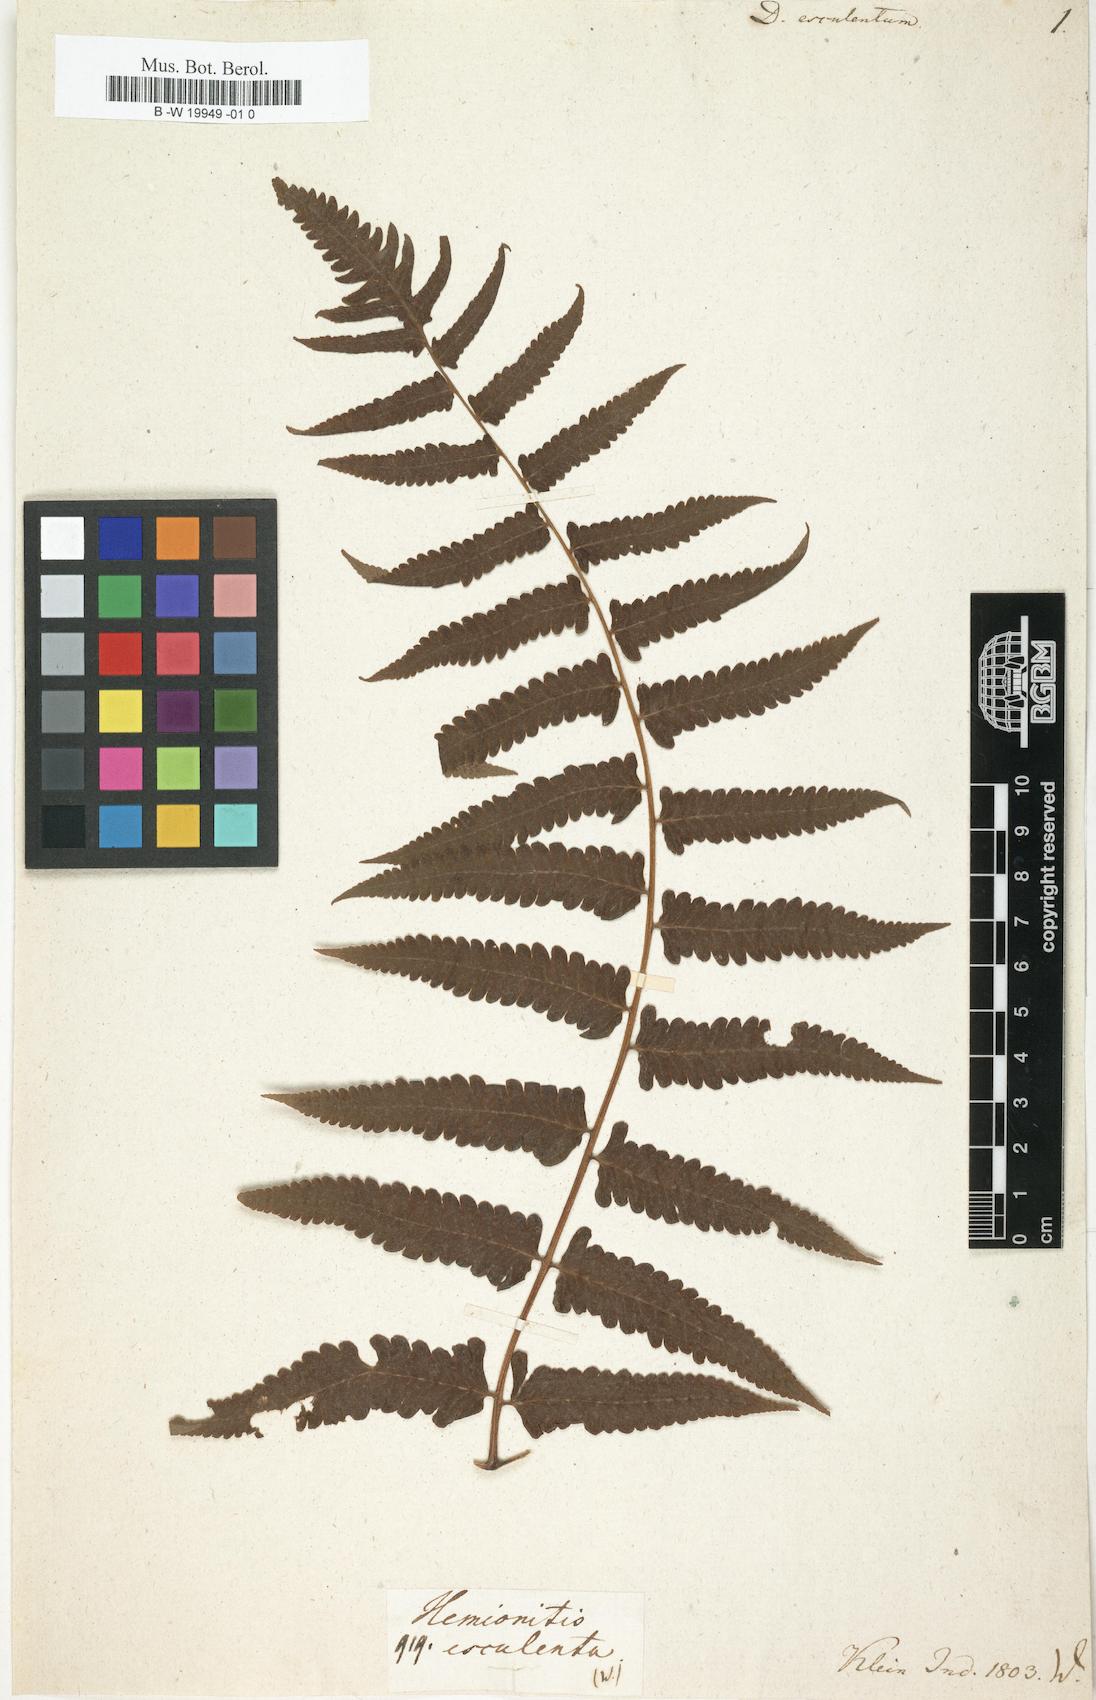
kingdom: Plantae
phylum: Tracheophyta
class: Polypodiopsida
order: Polypodiales
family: Athyriaceae
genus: Diplazium
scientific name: Diplazium esculentum
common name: Vegetable fern
